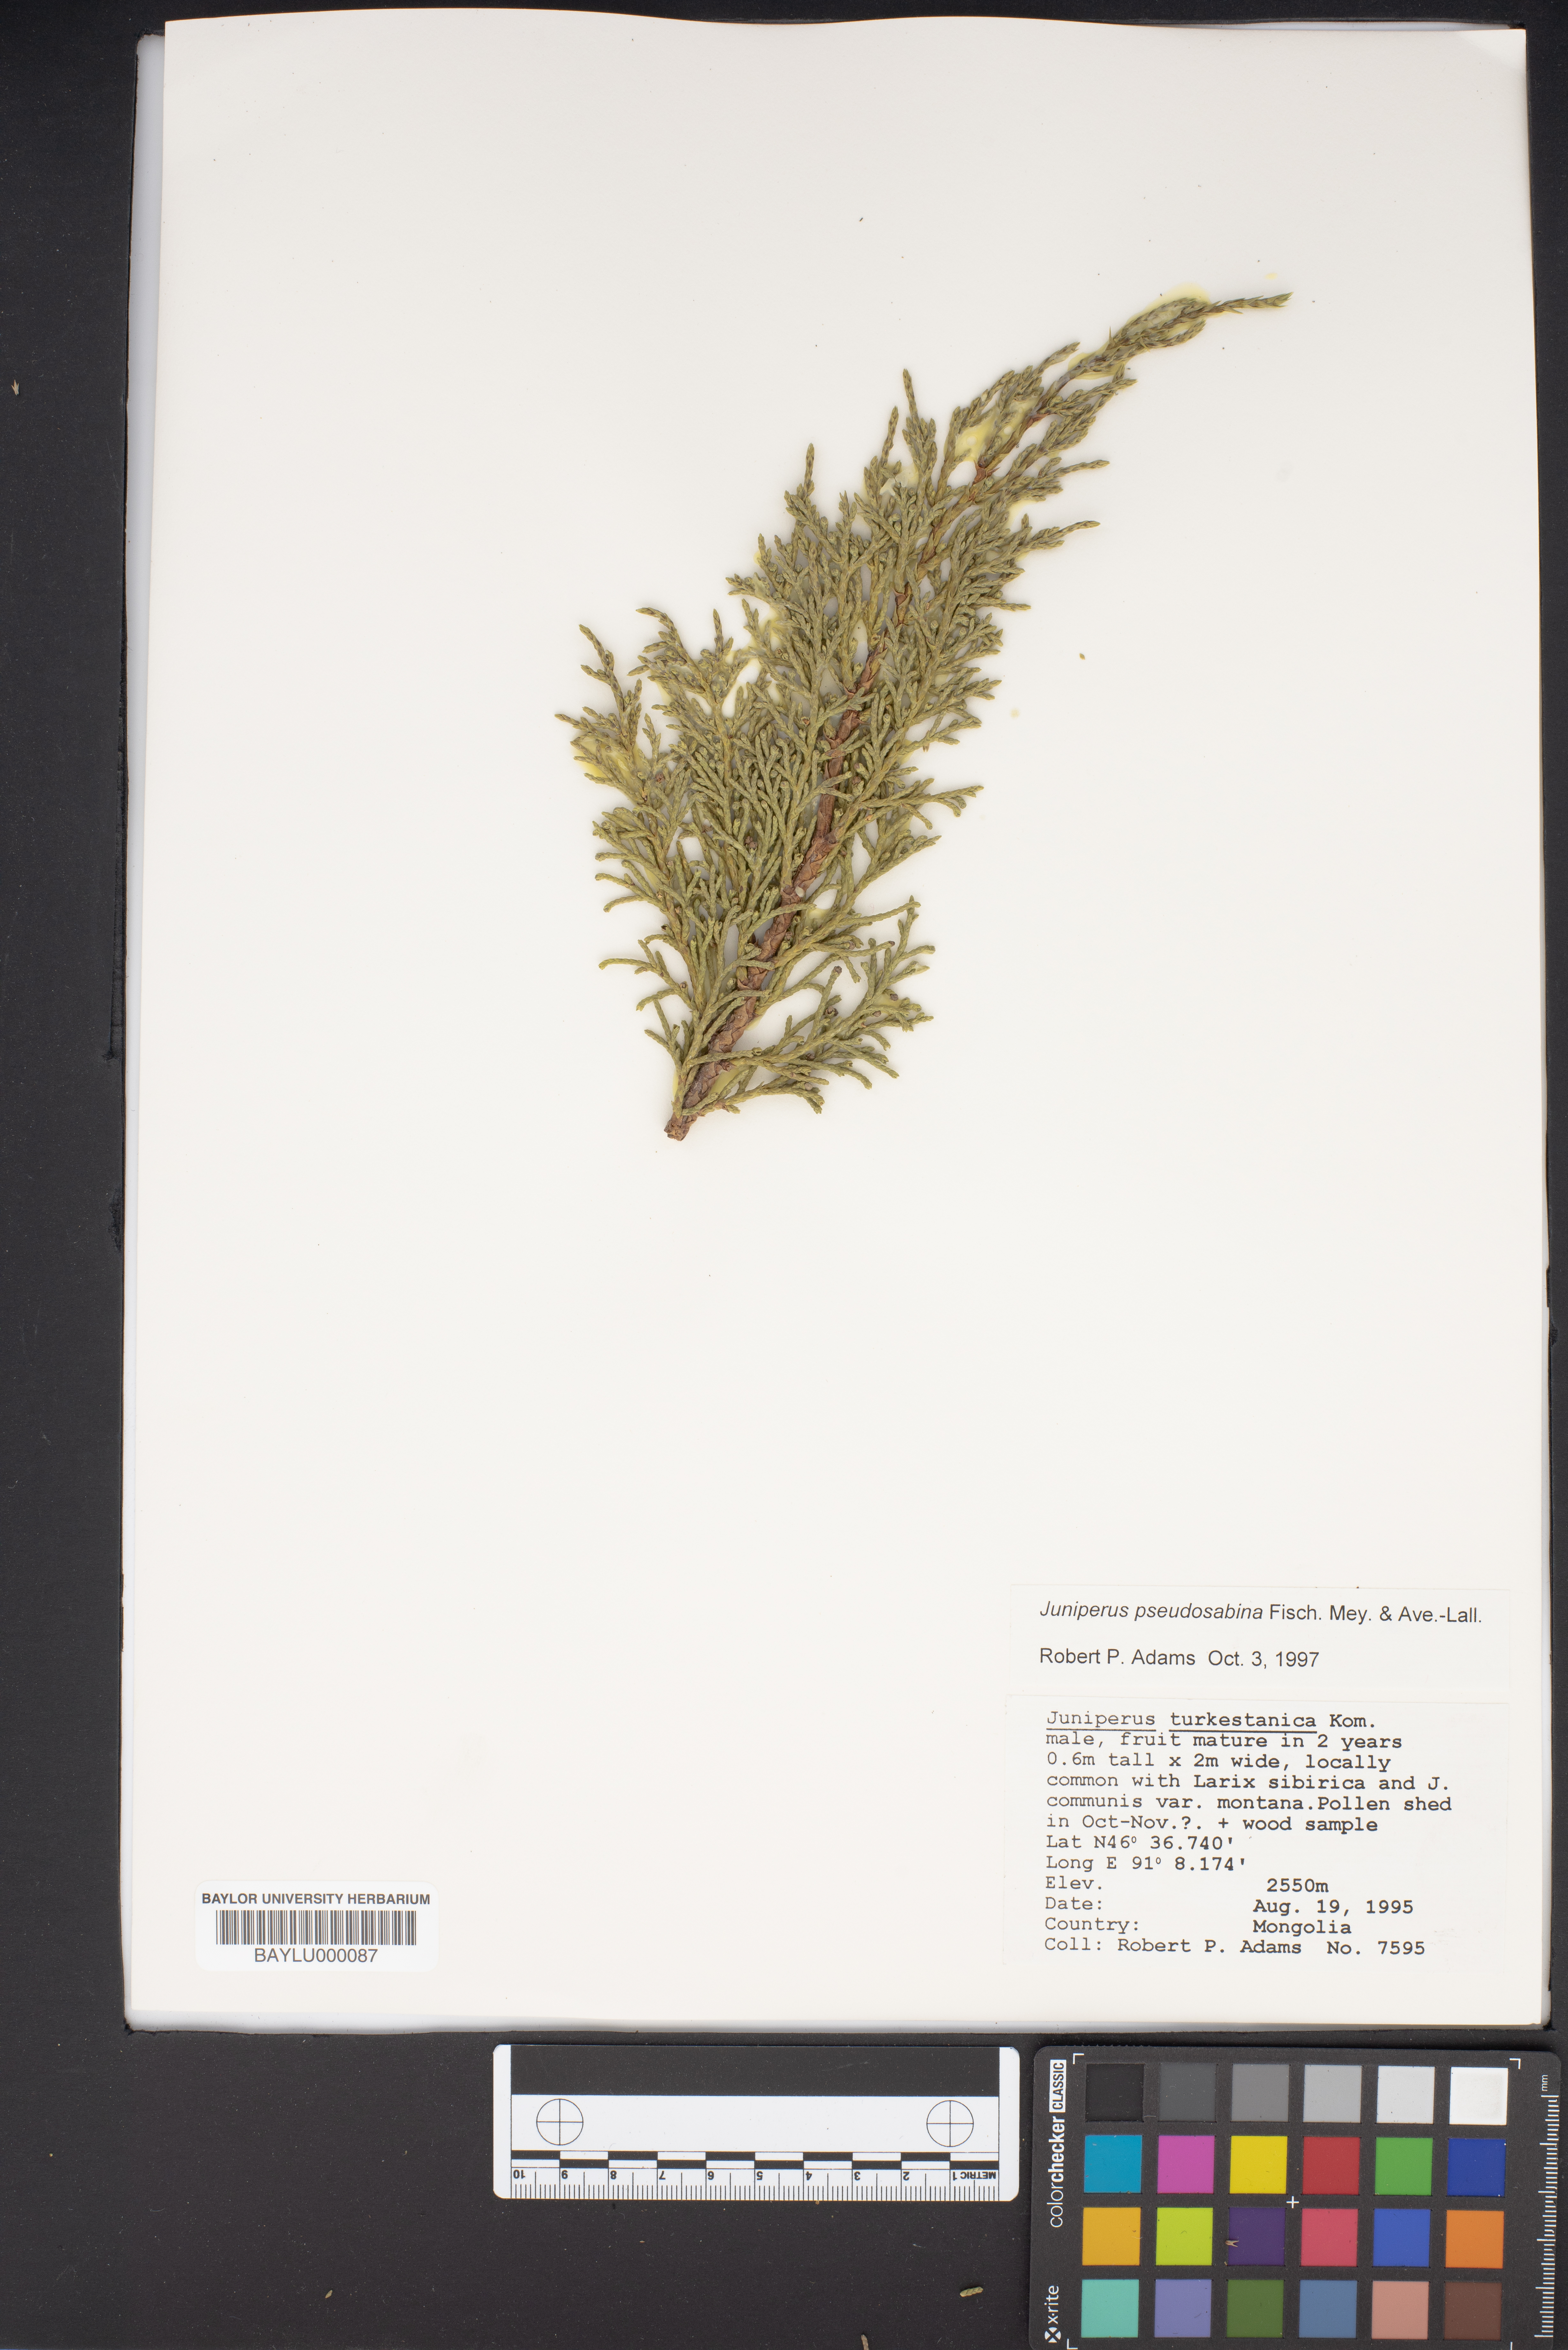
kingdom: Plantae
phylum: Tracheophyta
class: Pinopsida
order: Pinales
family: Cupressaceae
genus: Juniperus
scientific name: Juniperus pseudosabina
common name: Turkestan juniper
